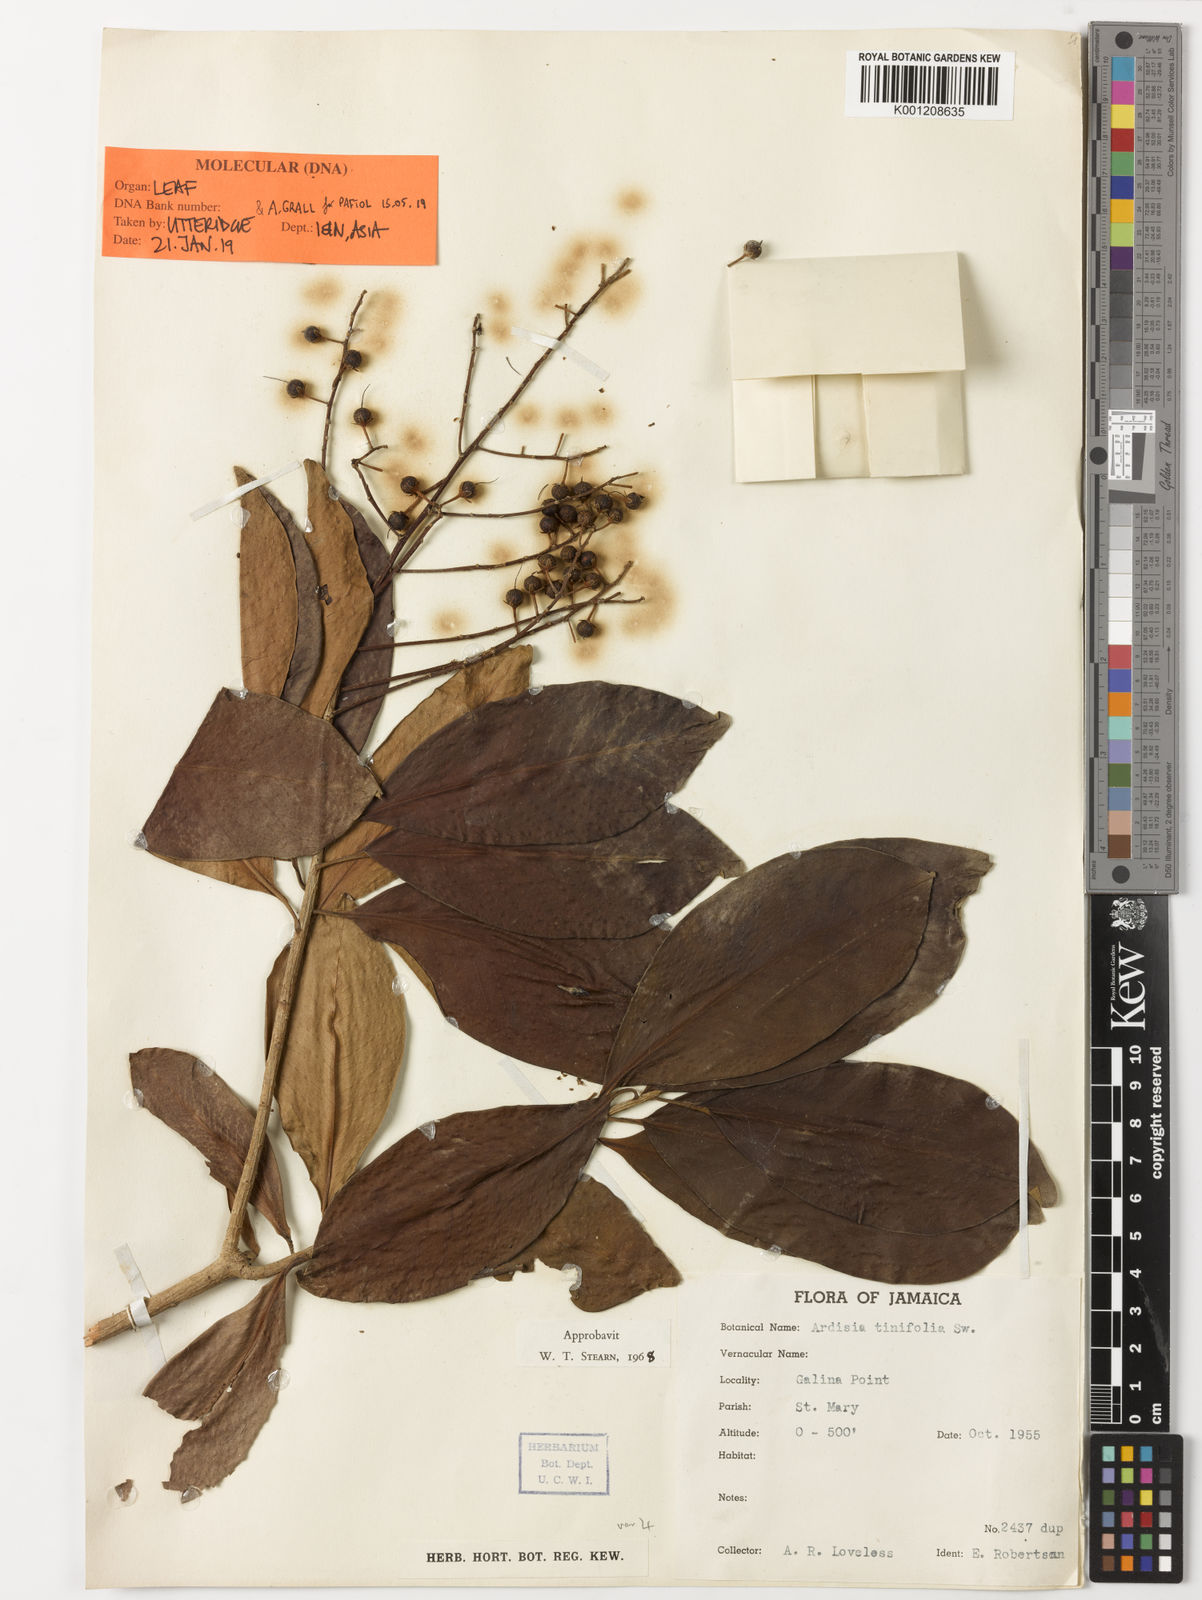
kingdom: Plantae
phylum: Tracheophyta
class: Magnoliopsida
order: Ericales
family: Primulaceae
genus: Ardisia
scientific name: Ardisia tinifolia
